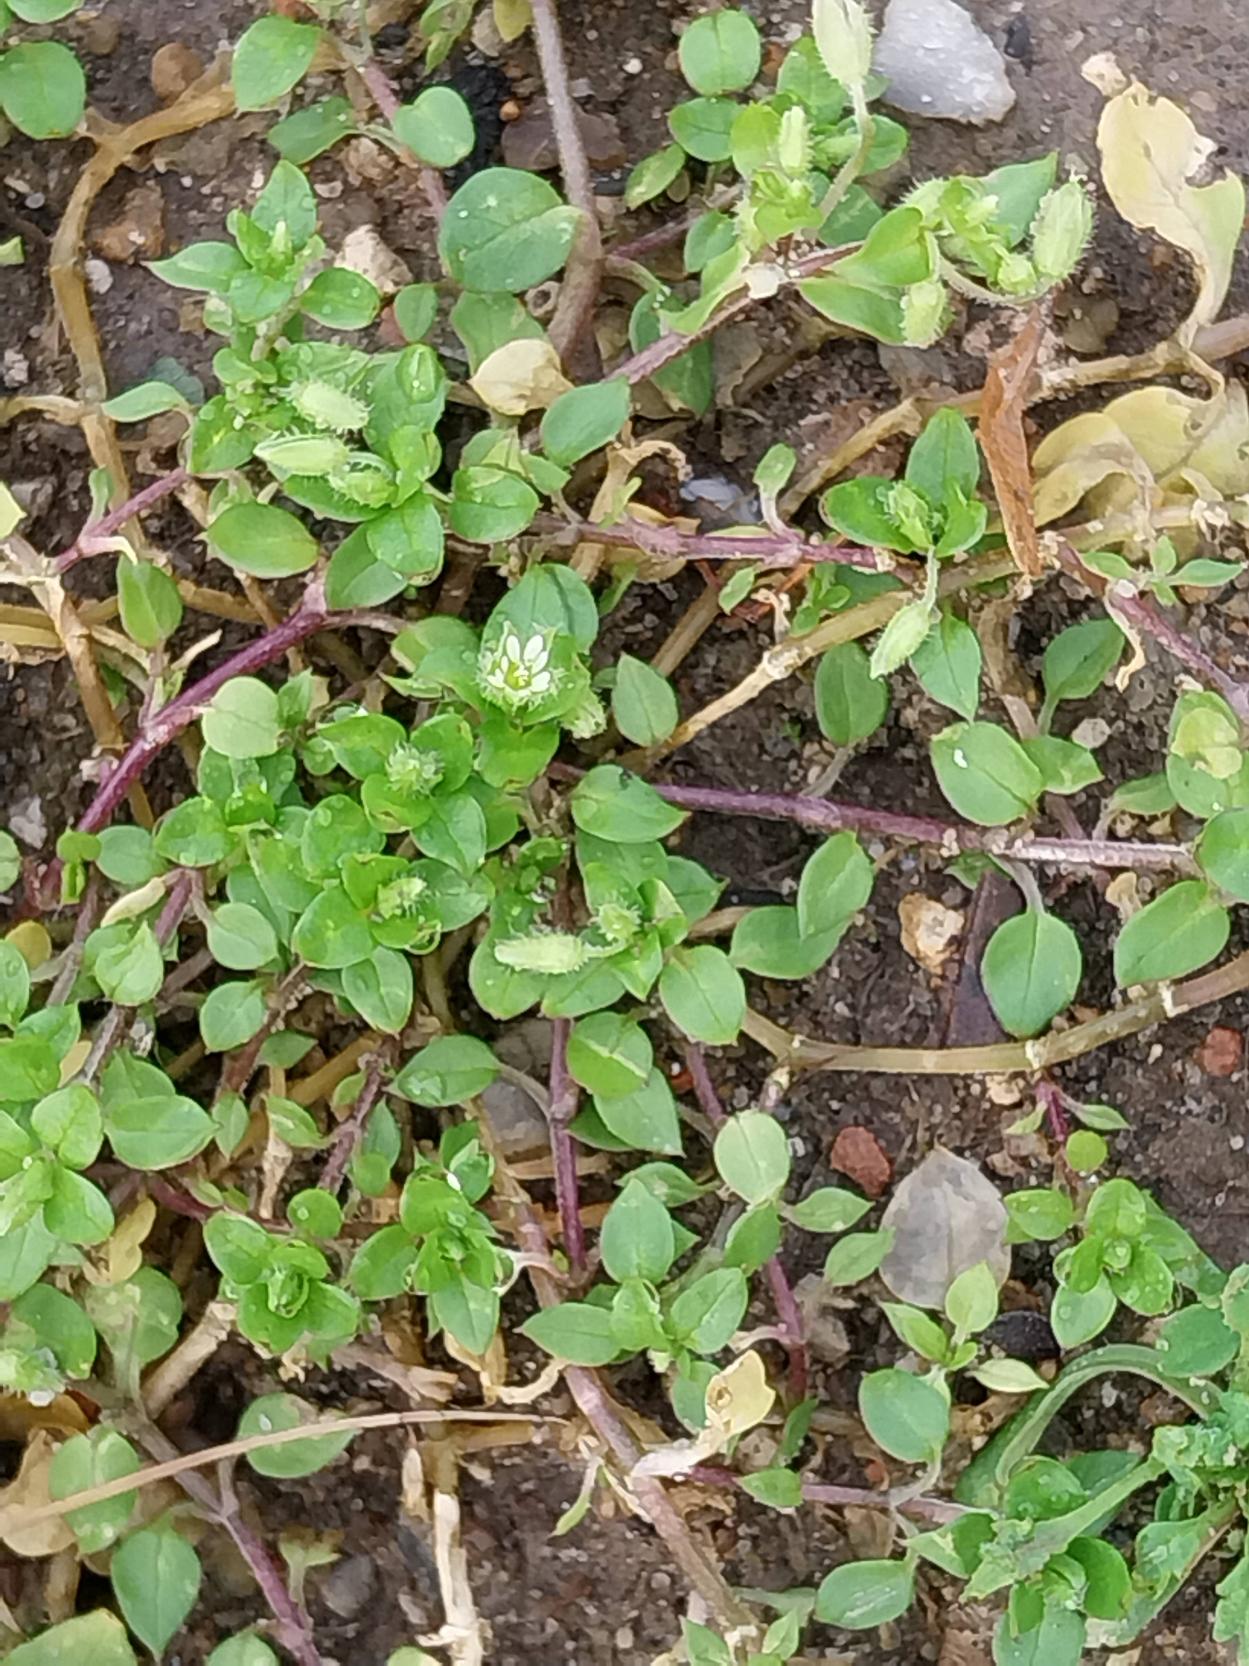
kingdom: Plantae
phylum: Tracheophyta
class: Magnoliopsida
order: Caryophyllales
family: Caryophyllaceae
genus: Stellaria
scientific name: Stellaria media
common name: Almindelig fuglegræs
